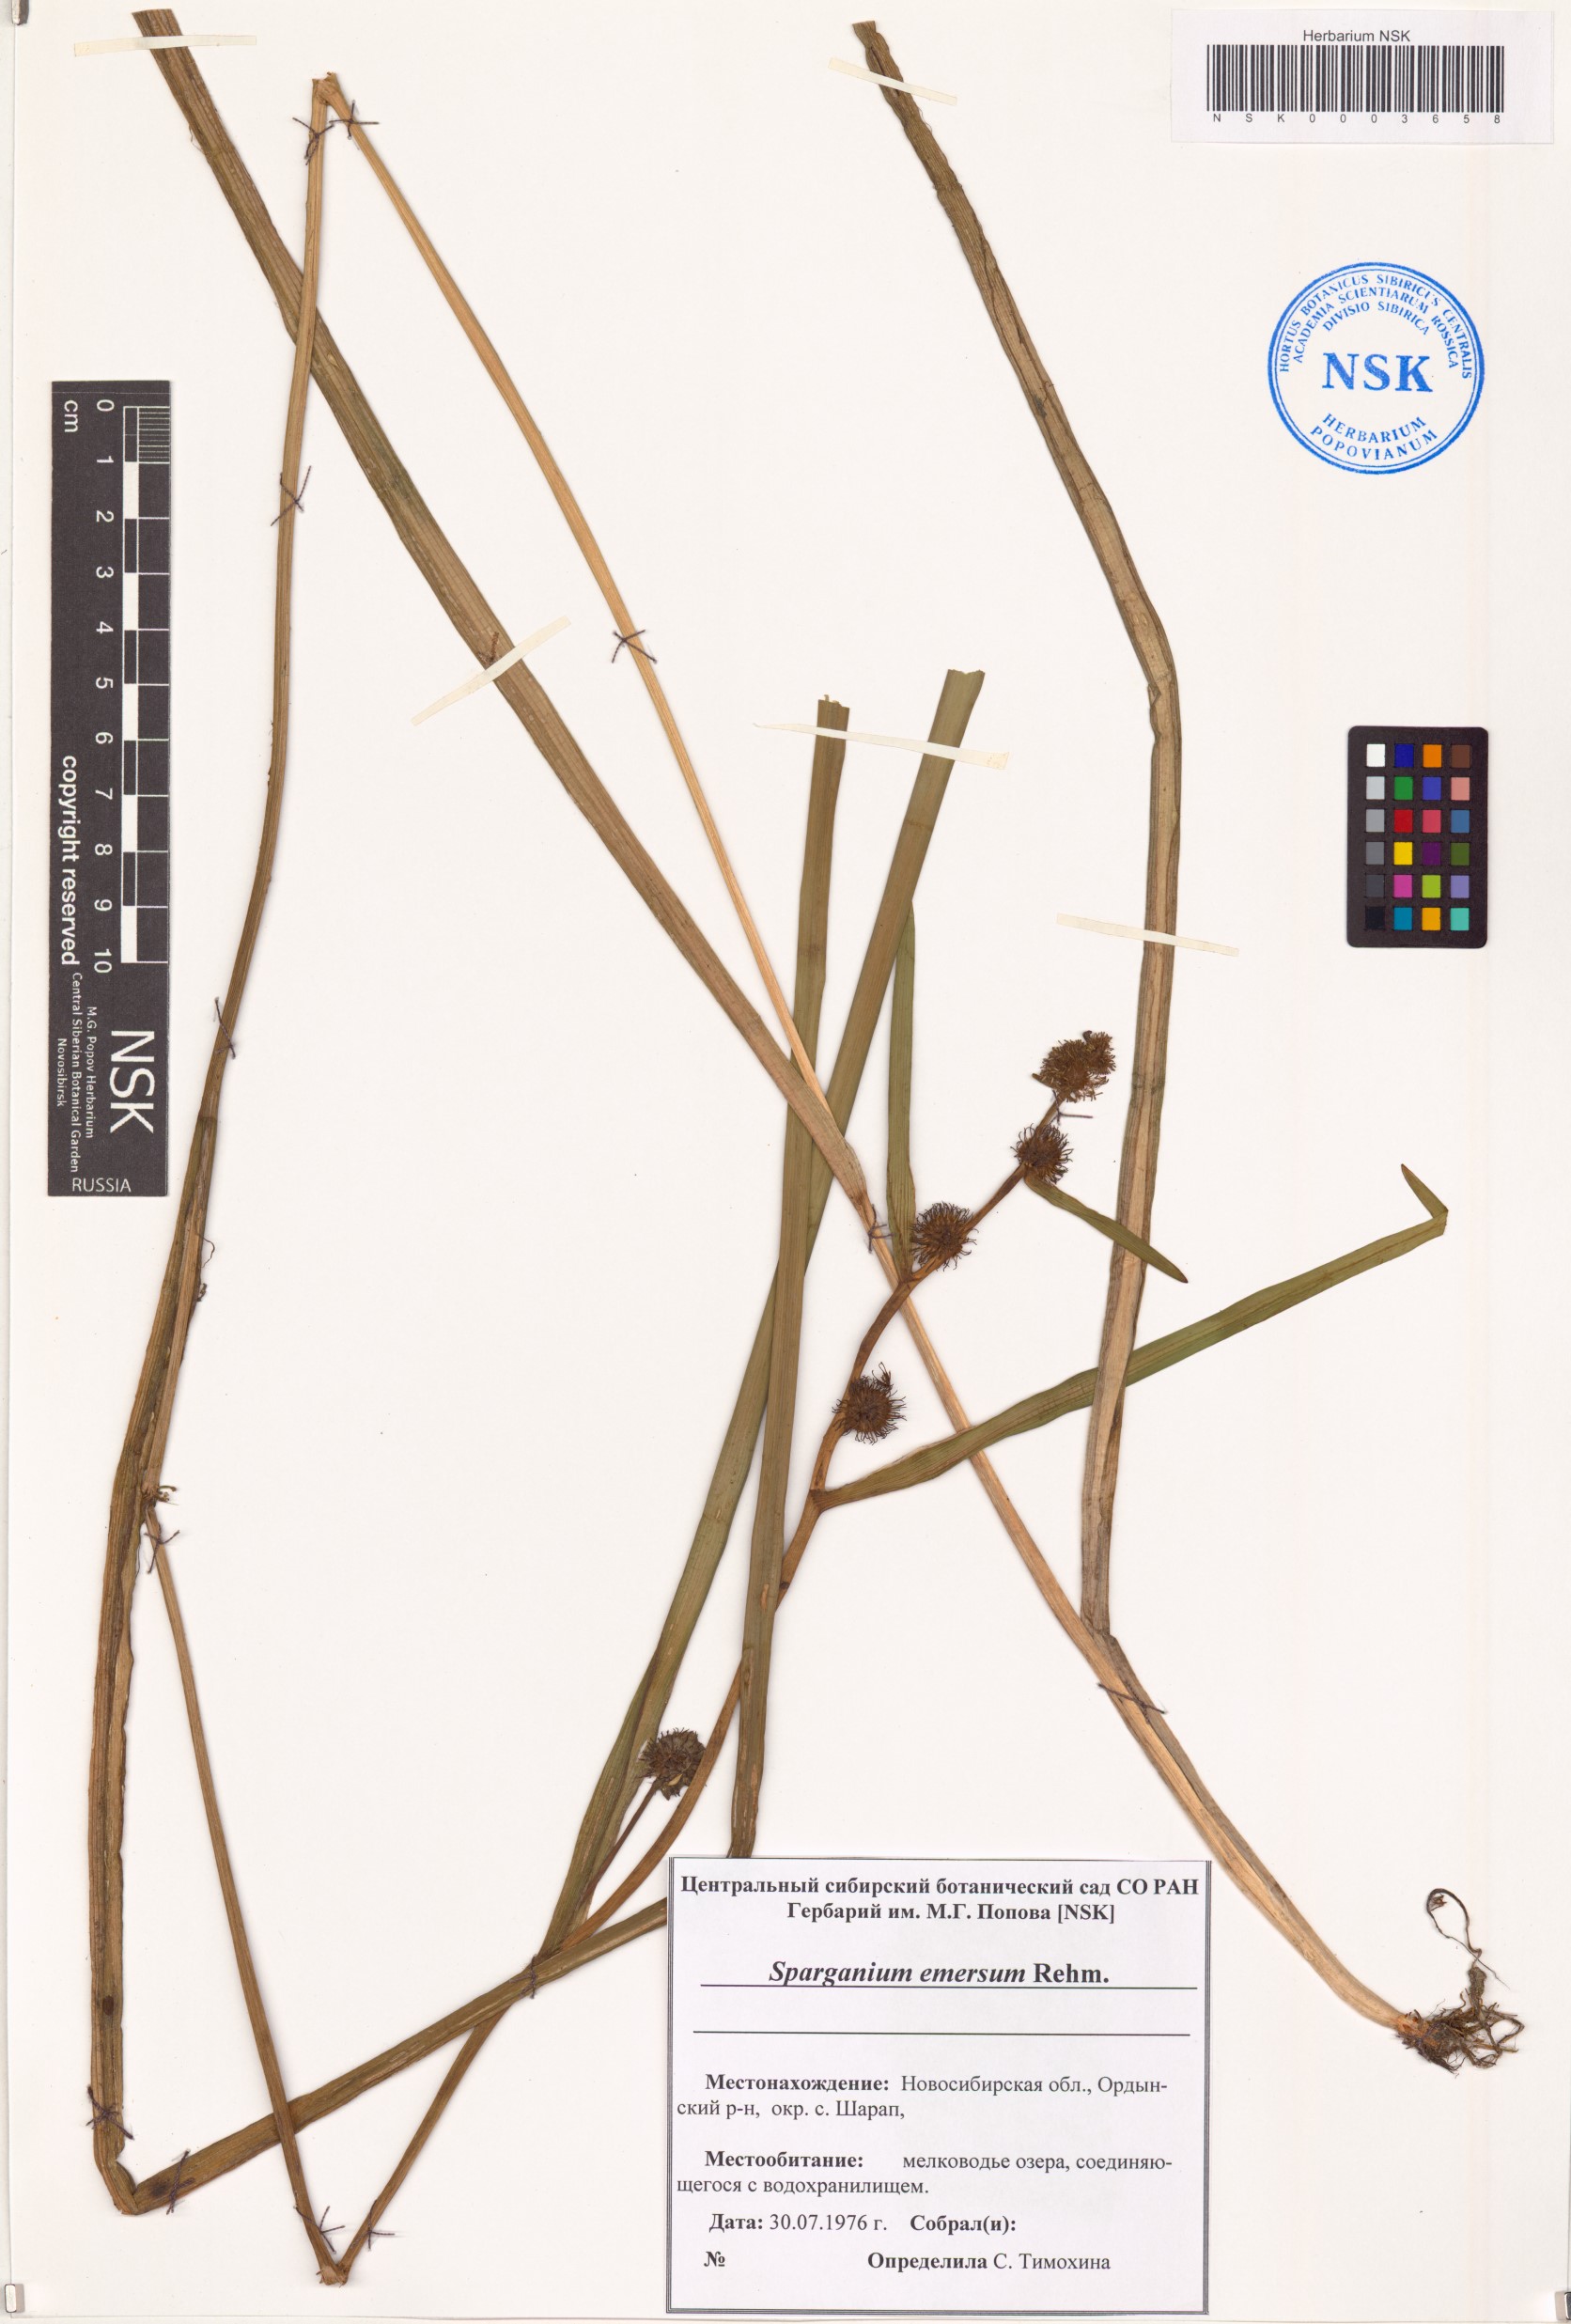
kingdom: Plantae
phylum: Tracheophyta
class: Liliopsida
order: Poales
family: Typhaceae
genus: Sparganium
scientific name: Sparganium emersum
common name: Unbranched bur-reed
